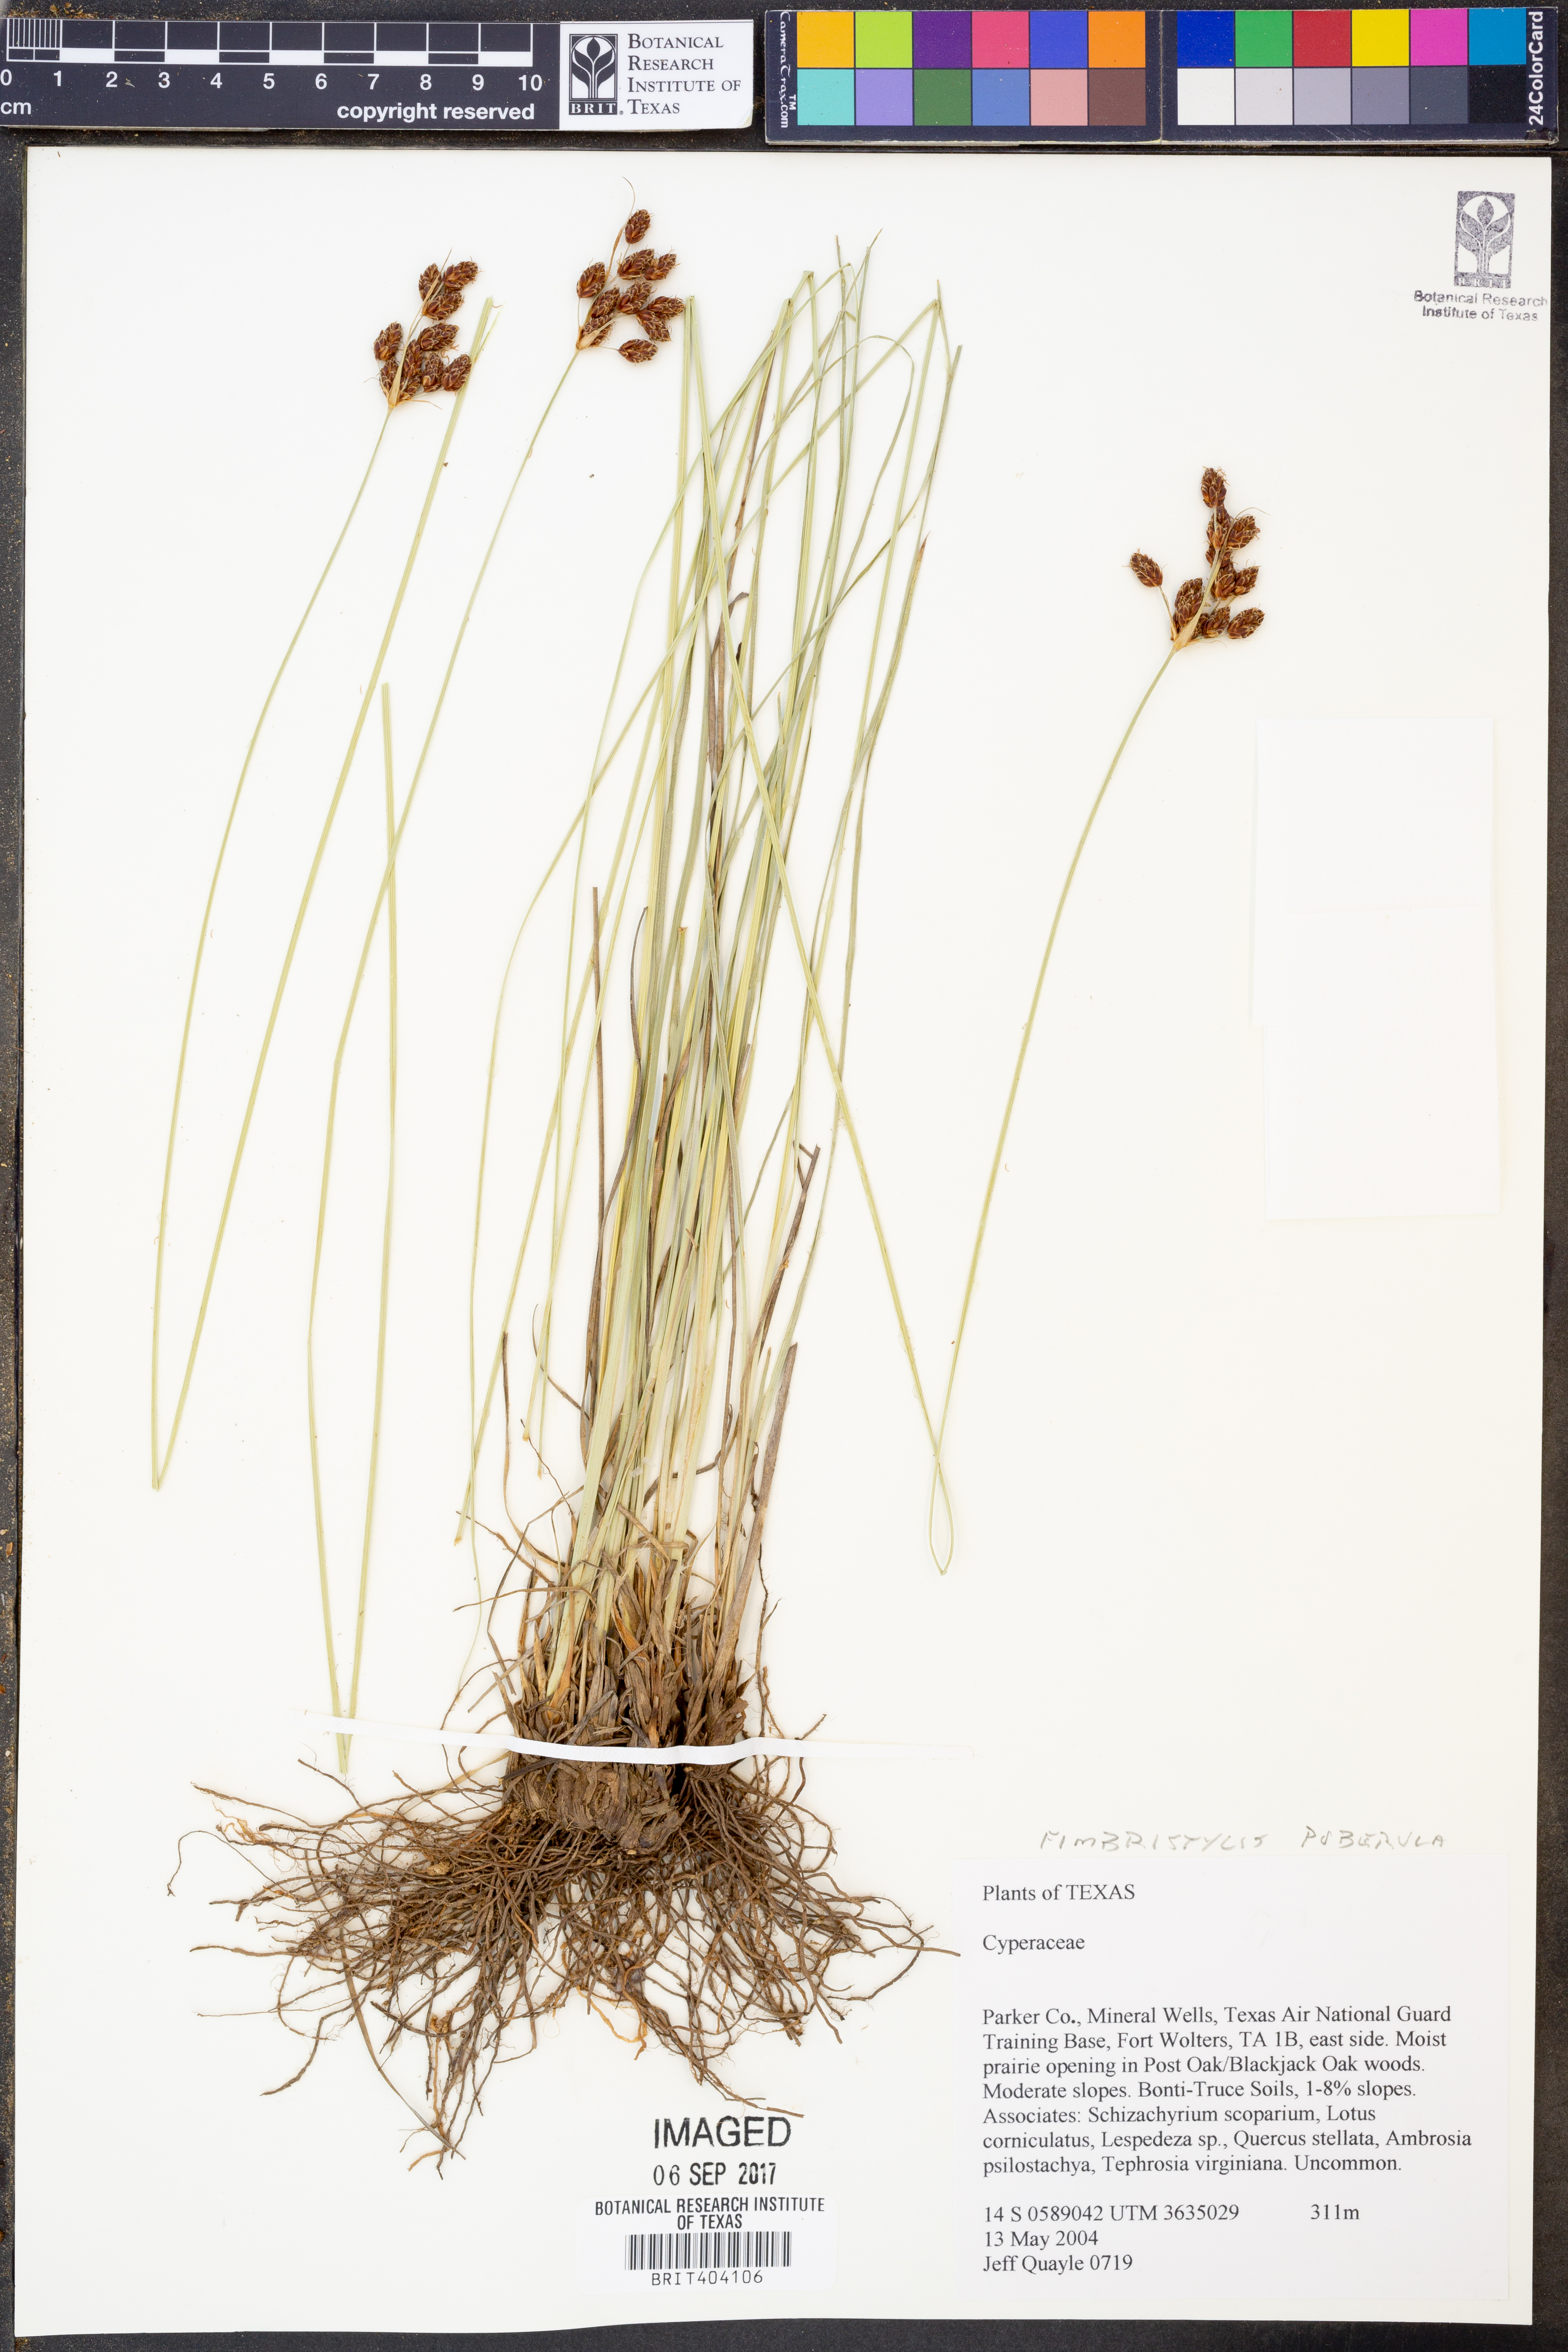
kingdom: Plantae
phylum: Tracheophyta
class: Liliopsida
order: Poales
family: Cyperaceae
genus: Fimbristylis
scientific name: Fimbristylis puberula
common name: Hairy fimbristylis
